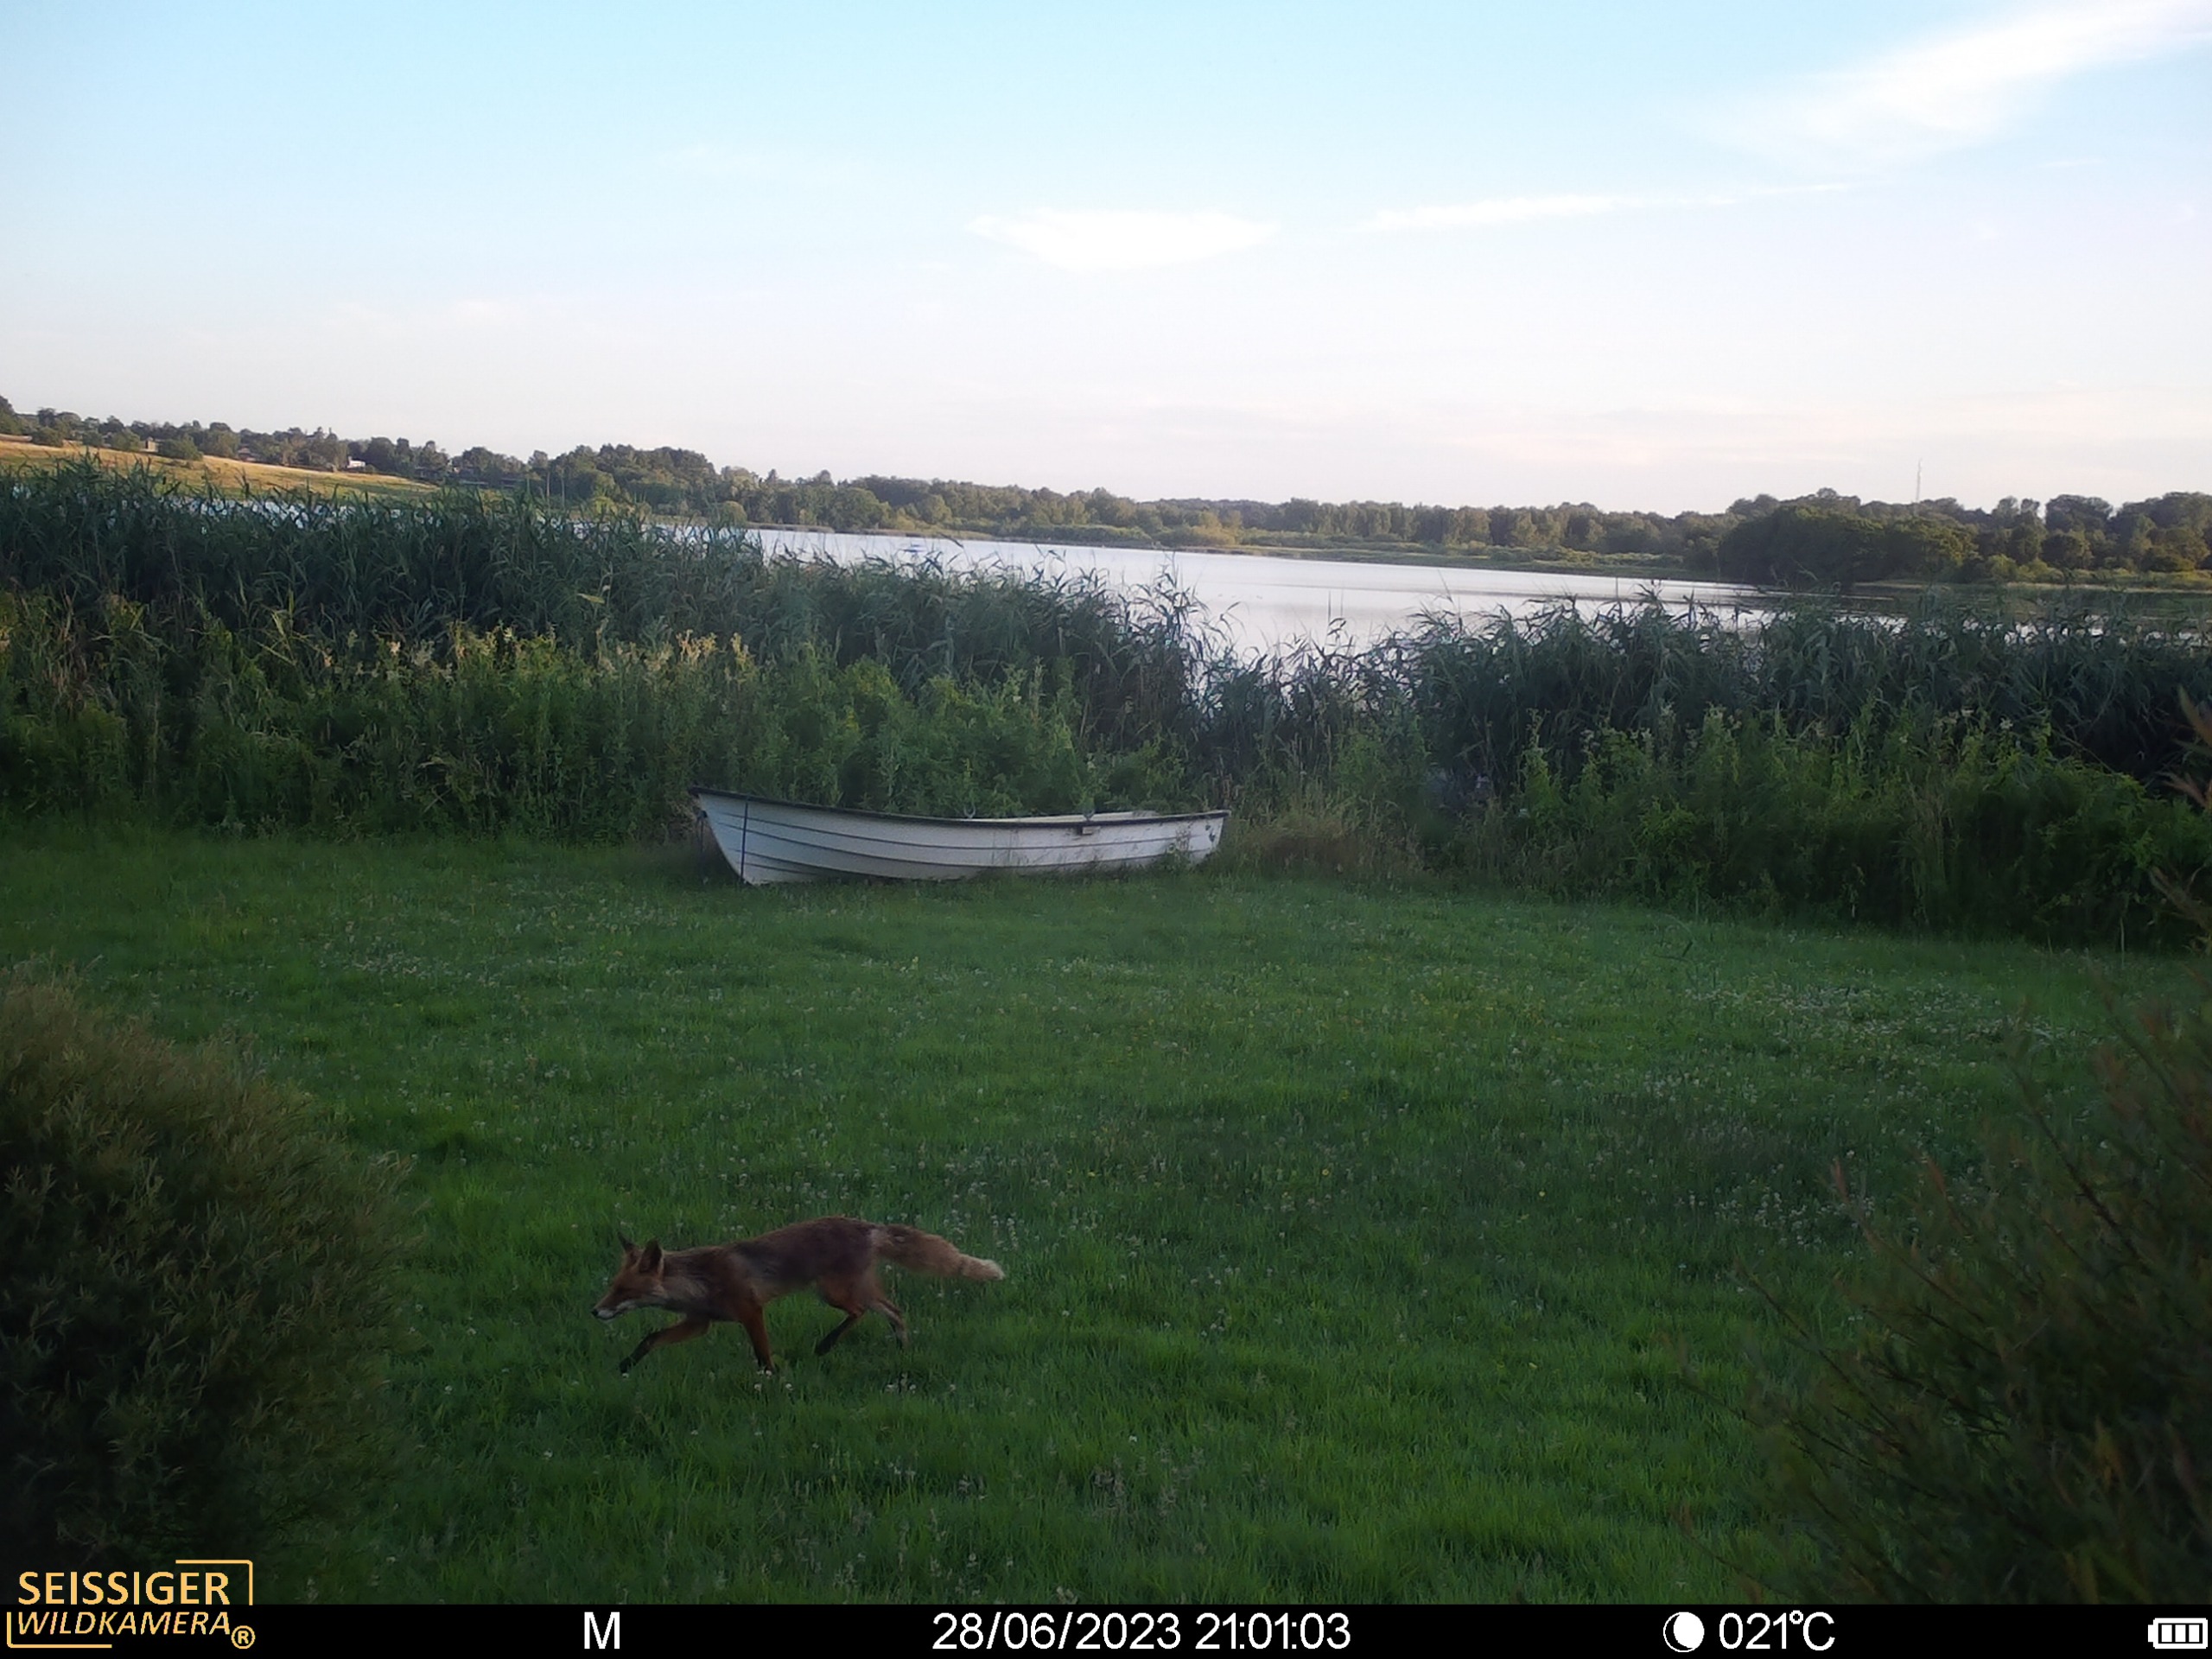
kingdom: Animalia
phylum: Chordata
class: Mammalia
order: Carnivora
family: Canidae
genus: Vulpes
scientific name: Vulpes vulpes
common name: Ræv
